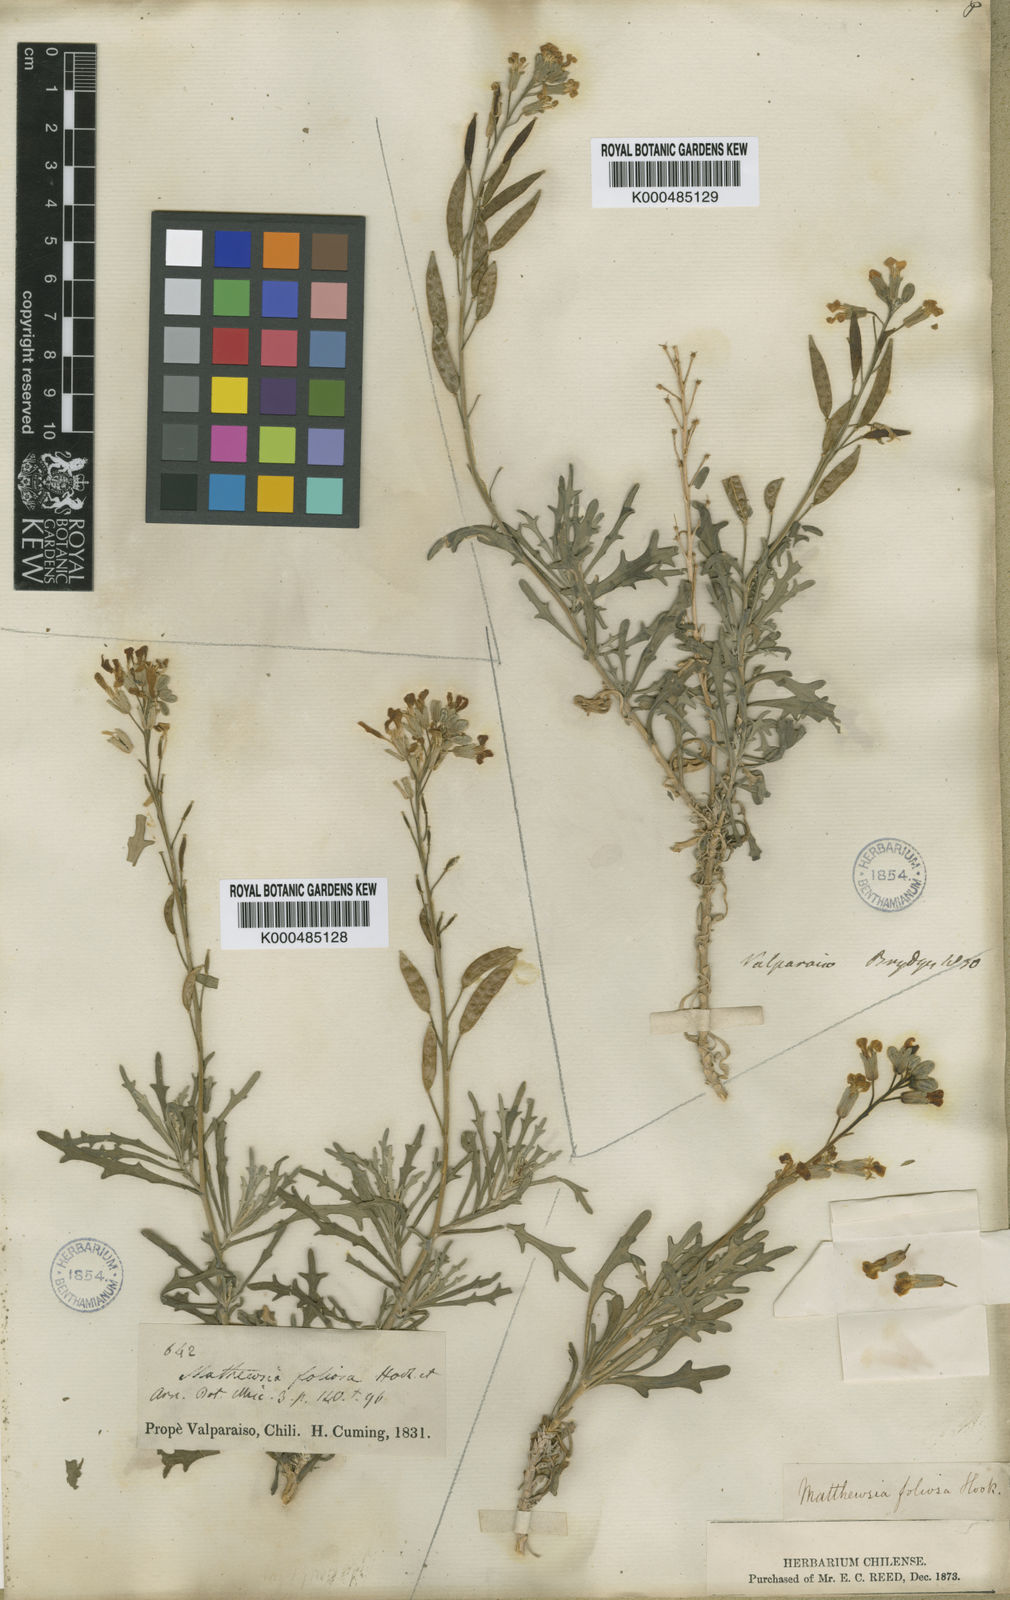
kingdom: Plantae
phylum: Tracheophyta
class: Magnoliopsida
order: Brassicales
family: Brassicaceae
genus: Mathewsia
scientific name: Mathewsia foliosa
